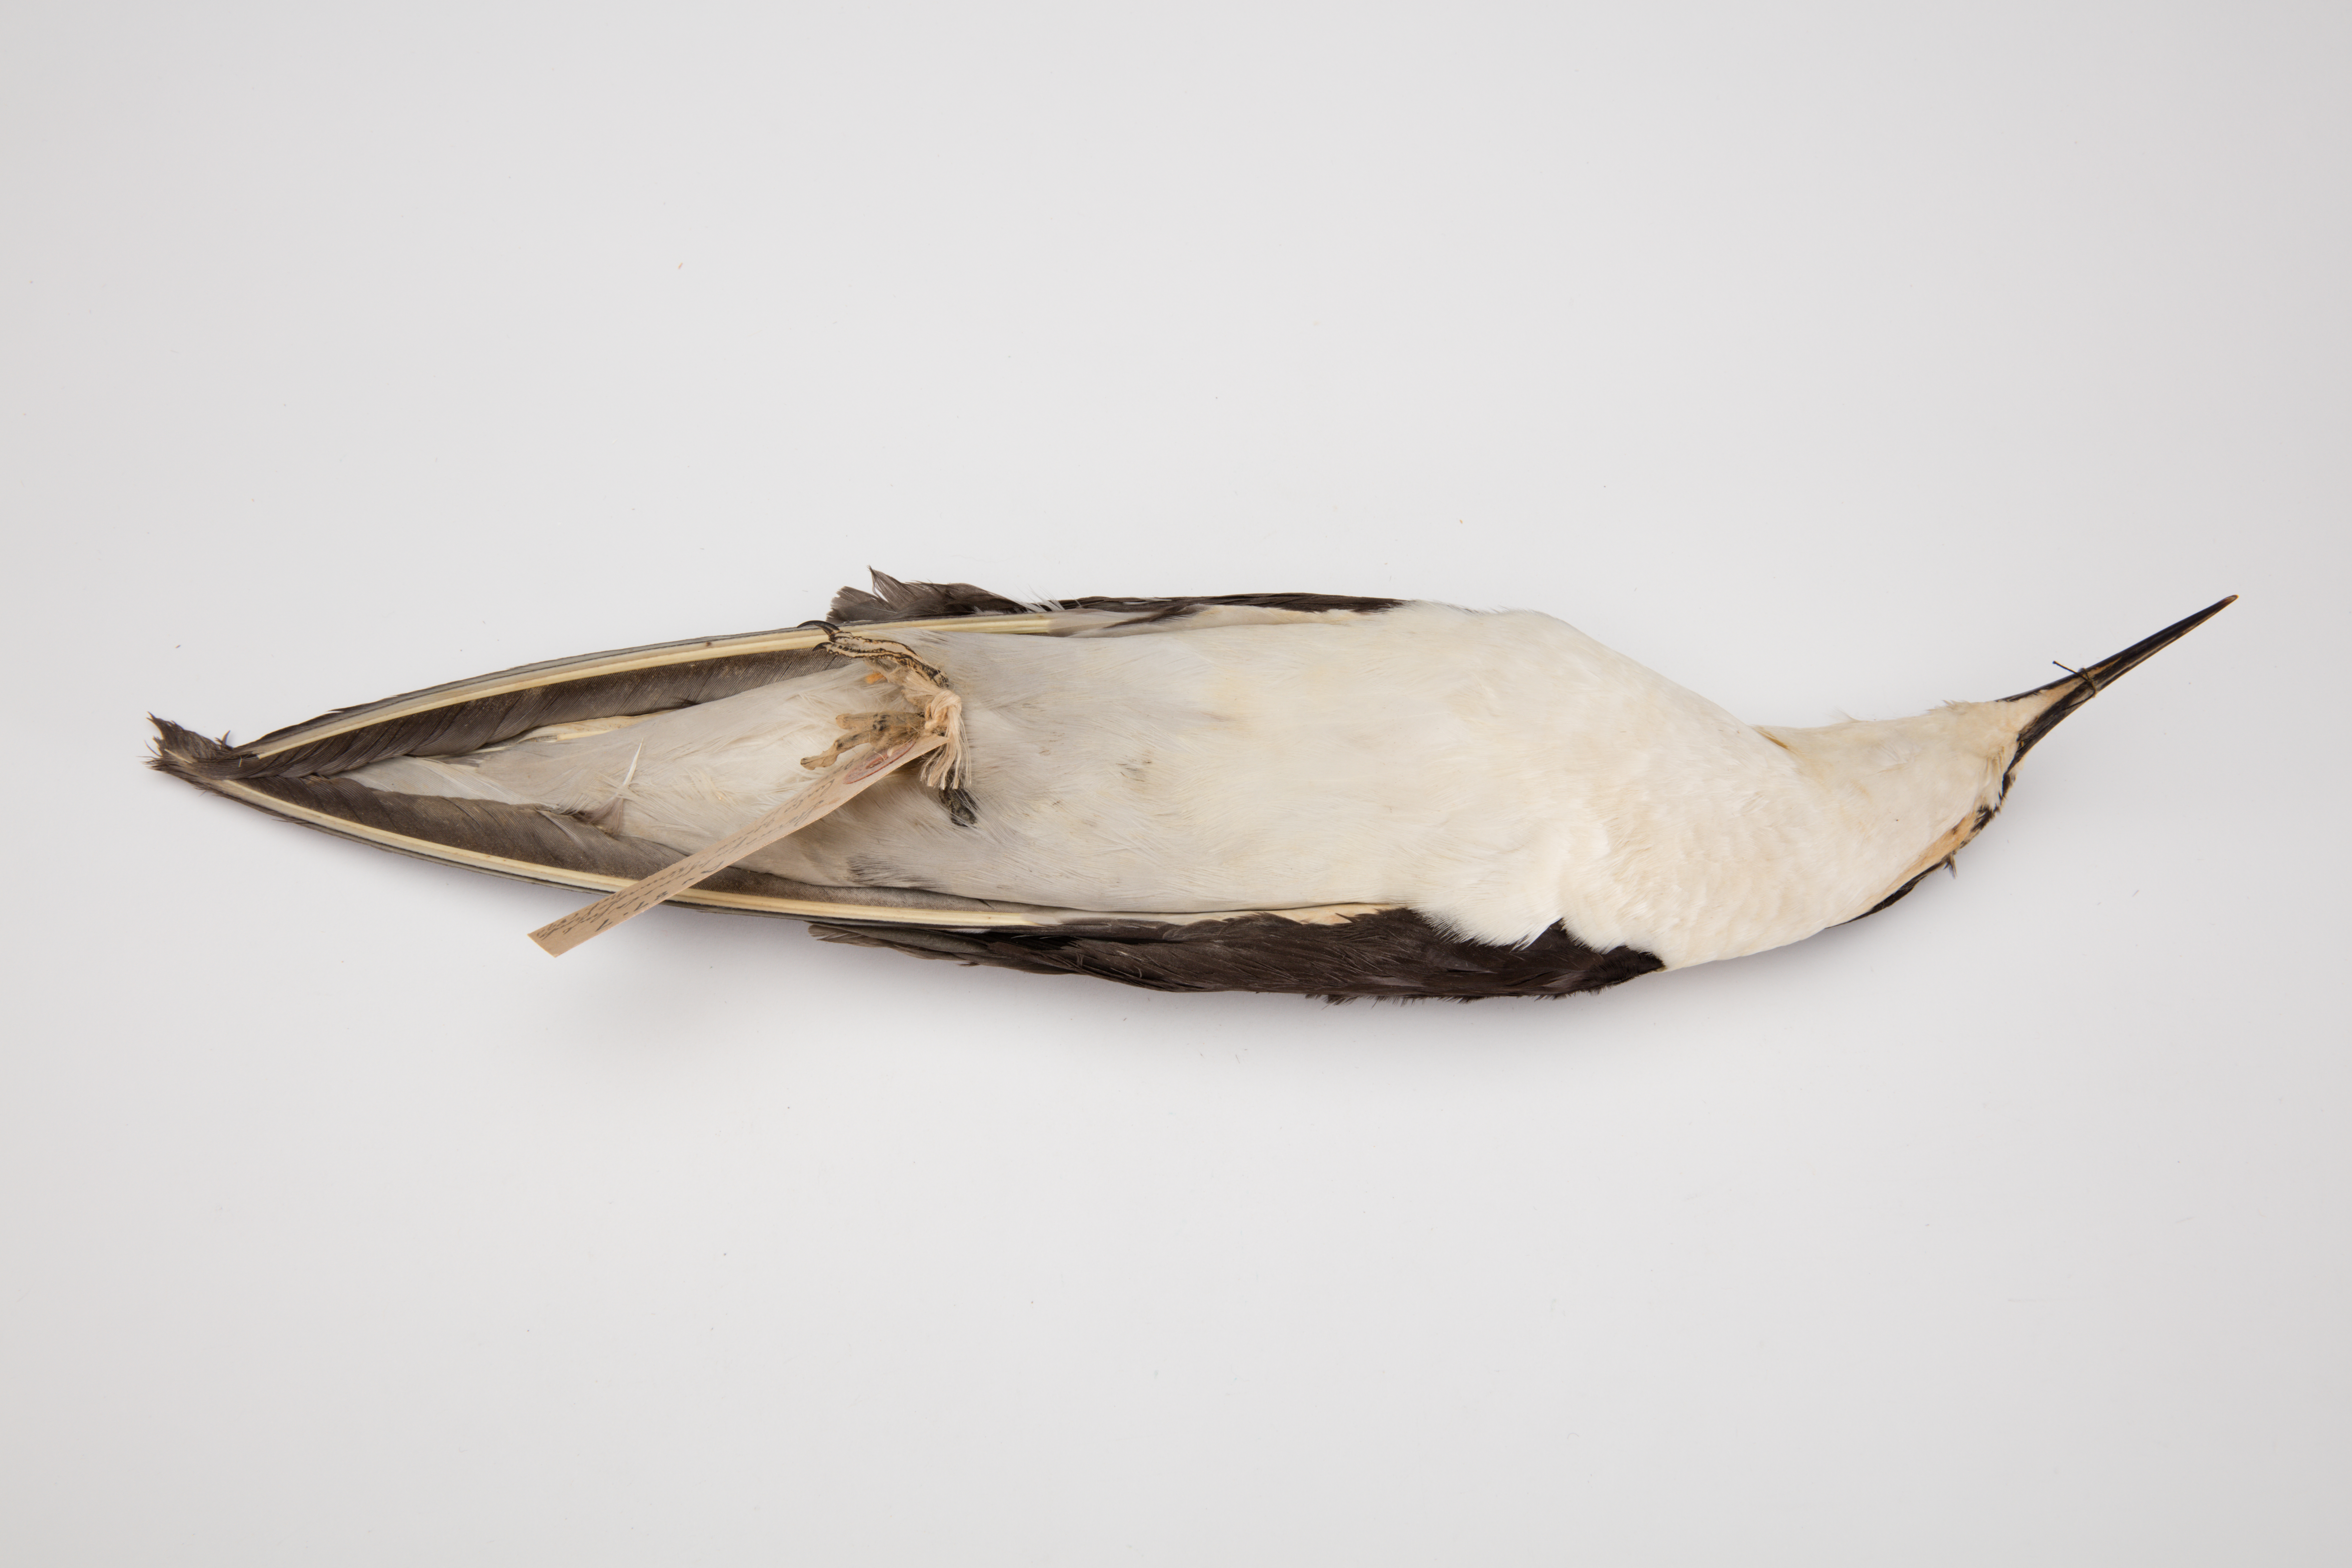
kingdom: Animalia
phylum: Chordata
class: Aves
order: Charadriiformes
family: Laridae
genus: Onychoprion
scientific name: Onychoprion fuscatus
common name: Sooty tern
